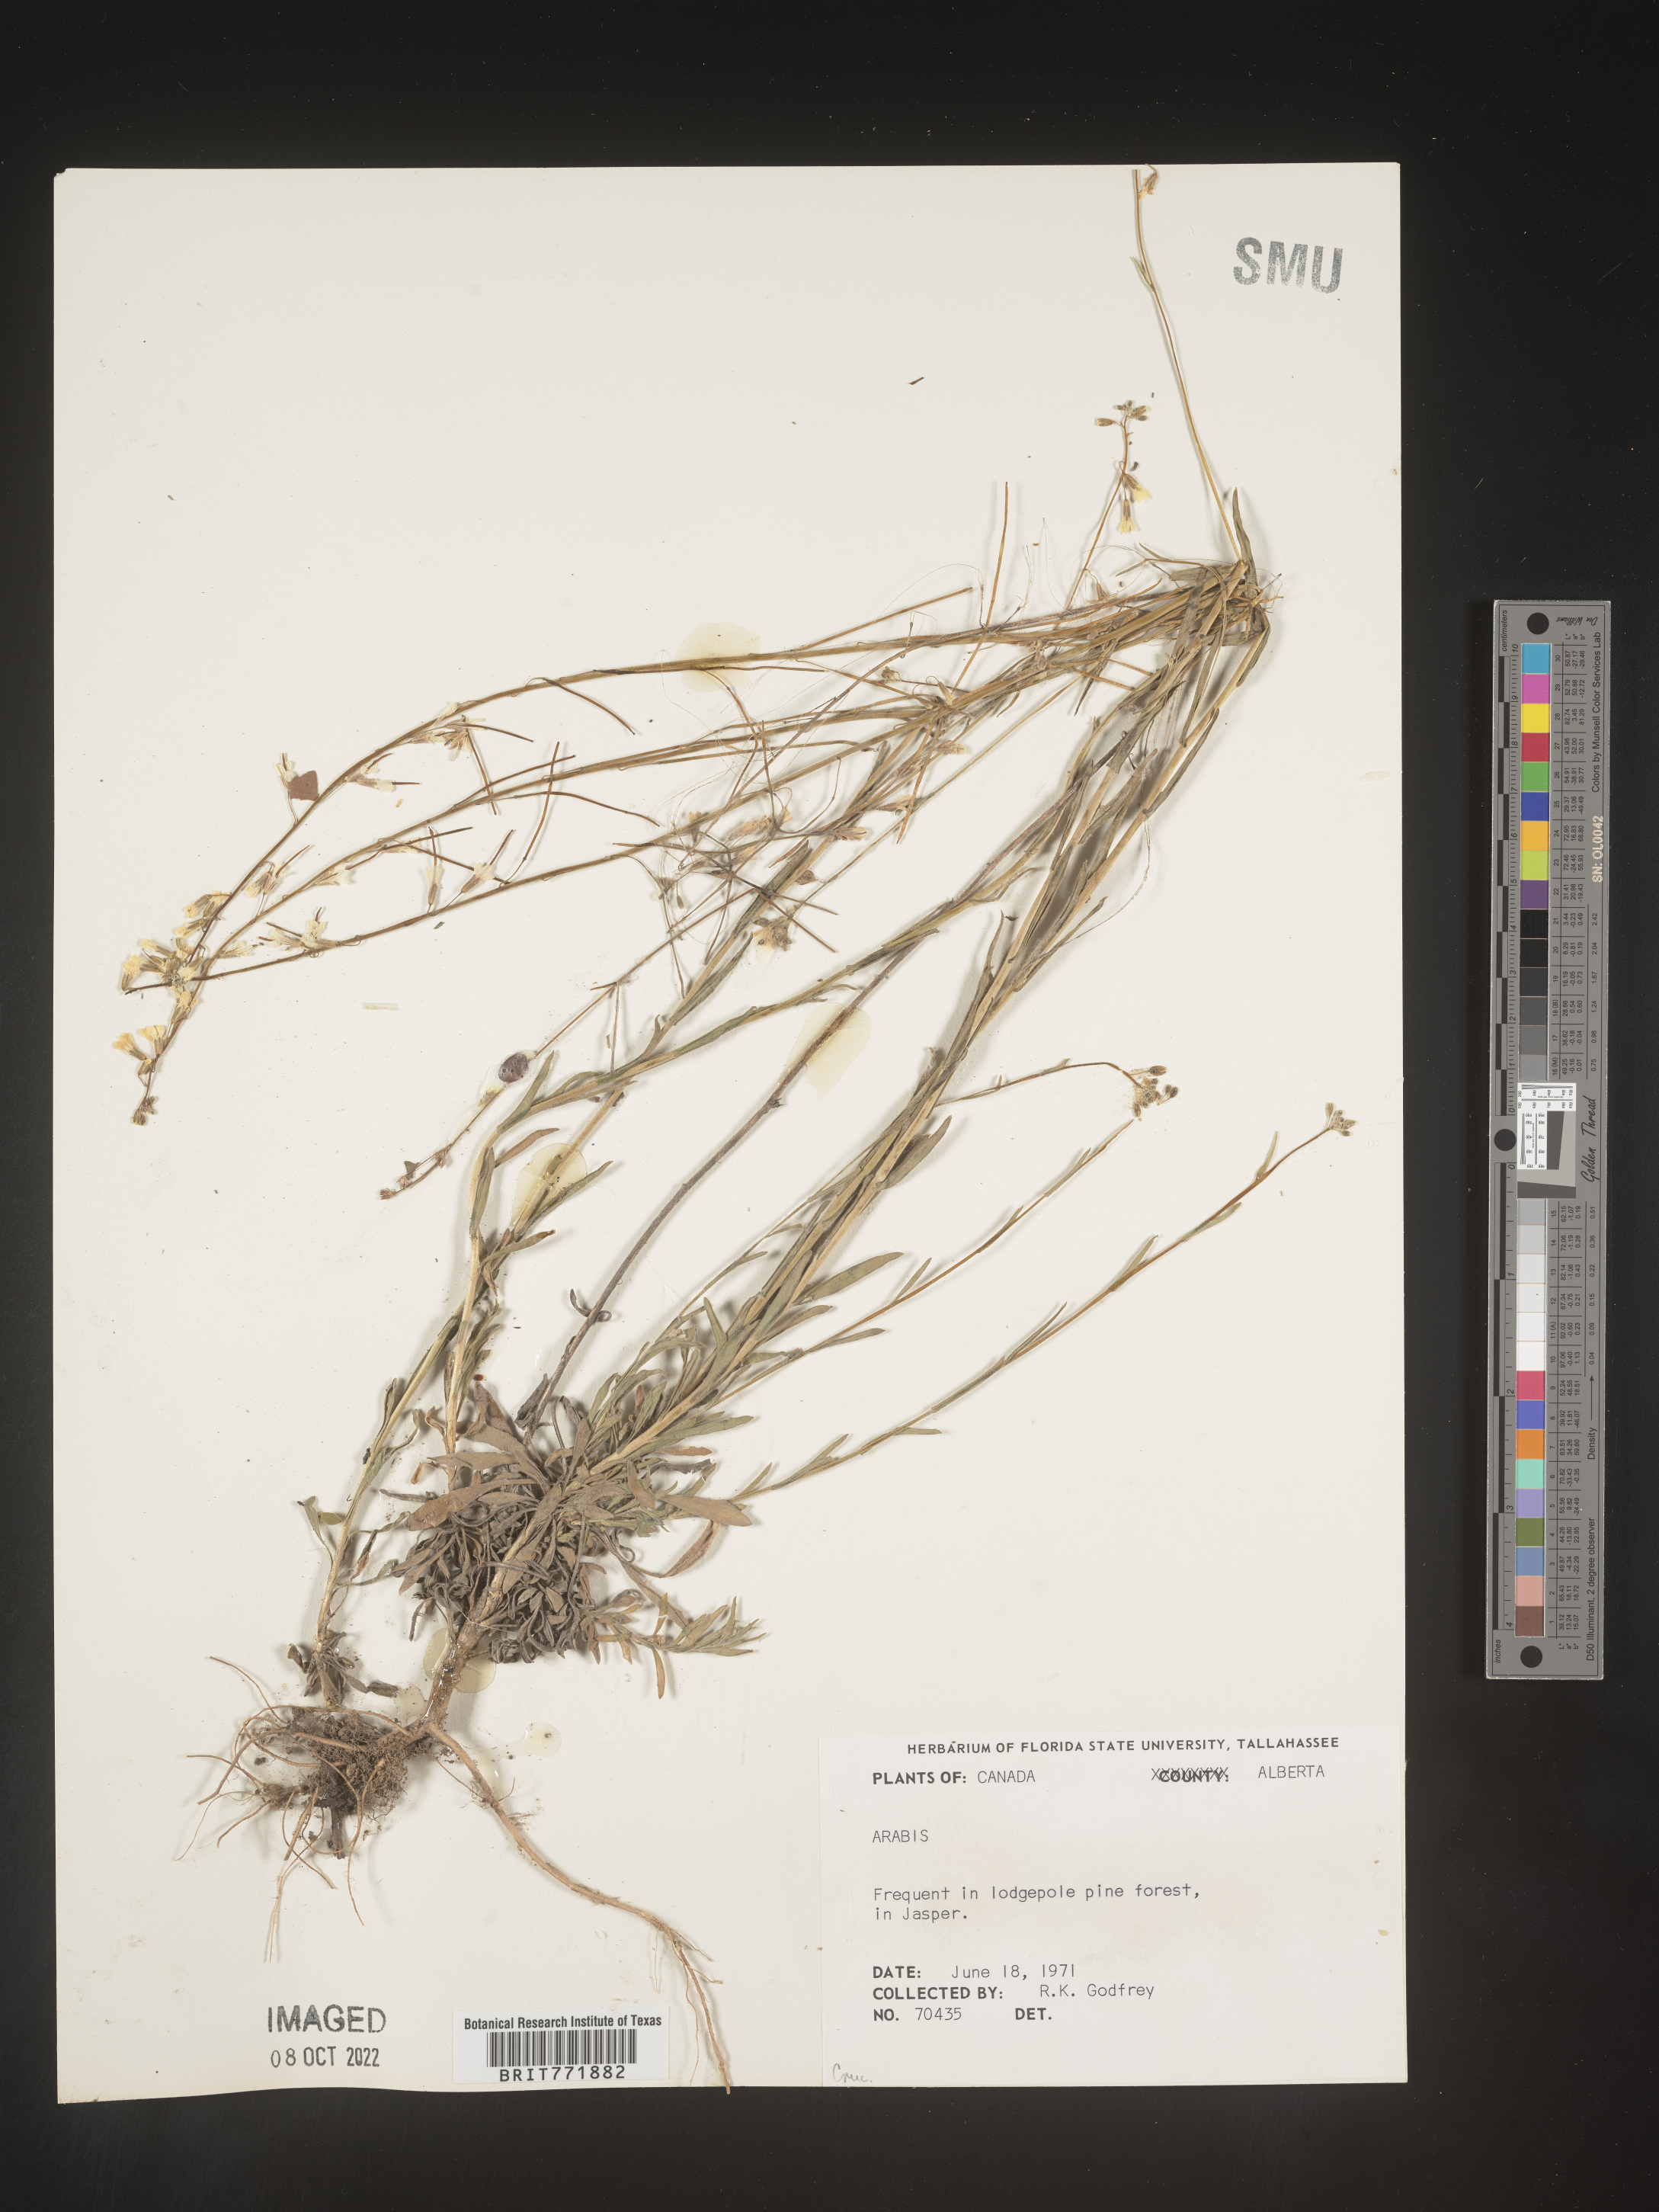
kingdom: Plantae
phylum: Tracheophyta
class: Magnoliopsida
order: Brassicales
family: Brassicaceae
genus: Arabis
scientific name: Arabis
